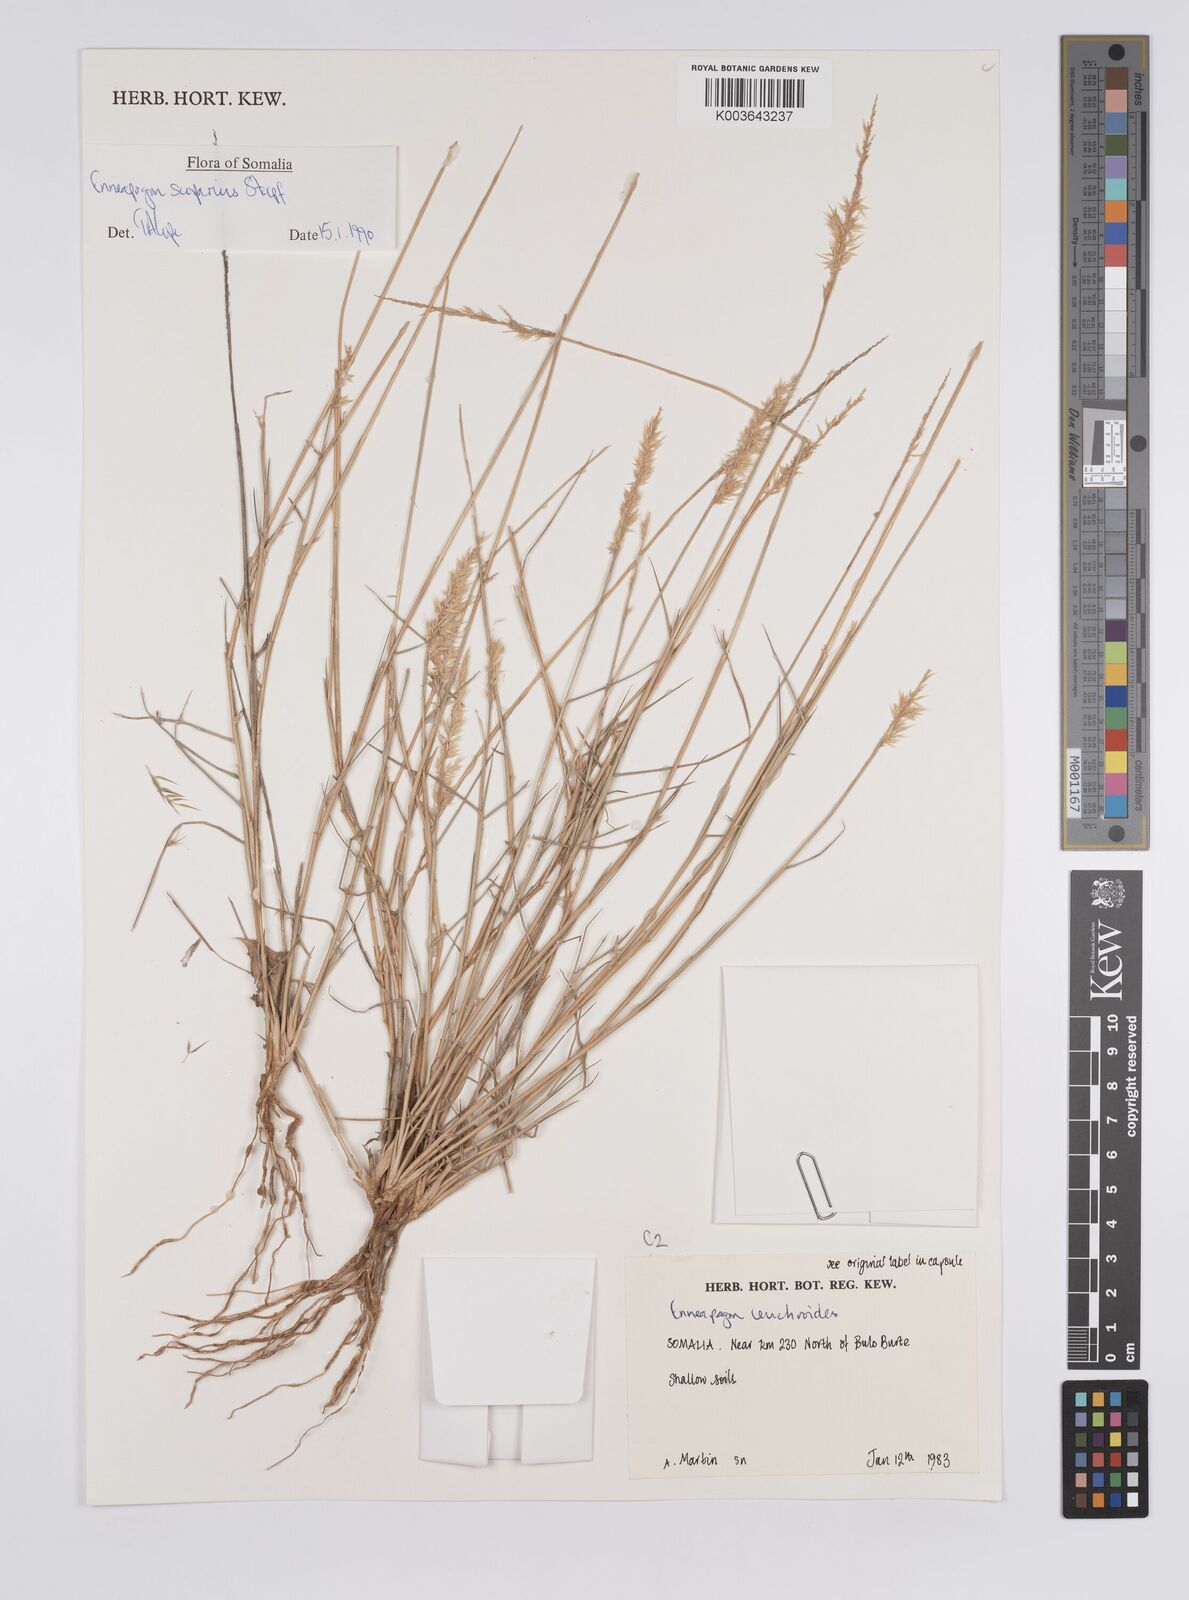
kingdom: Plantae
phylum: Tracheophyta
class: Liliopsida
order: Poales
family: Poaceae
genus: Enneapogon
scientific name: Enneapogon scoparius
